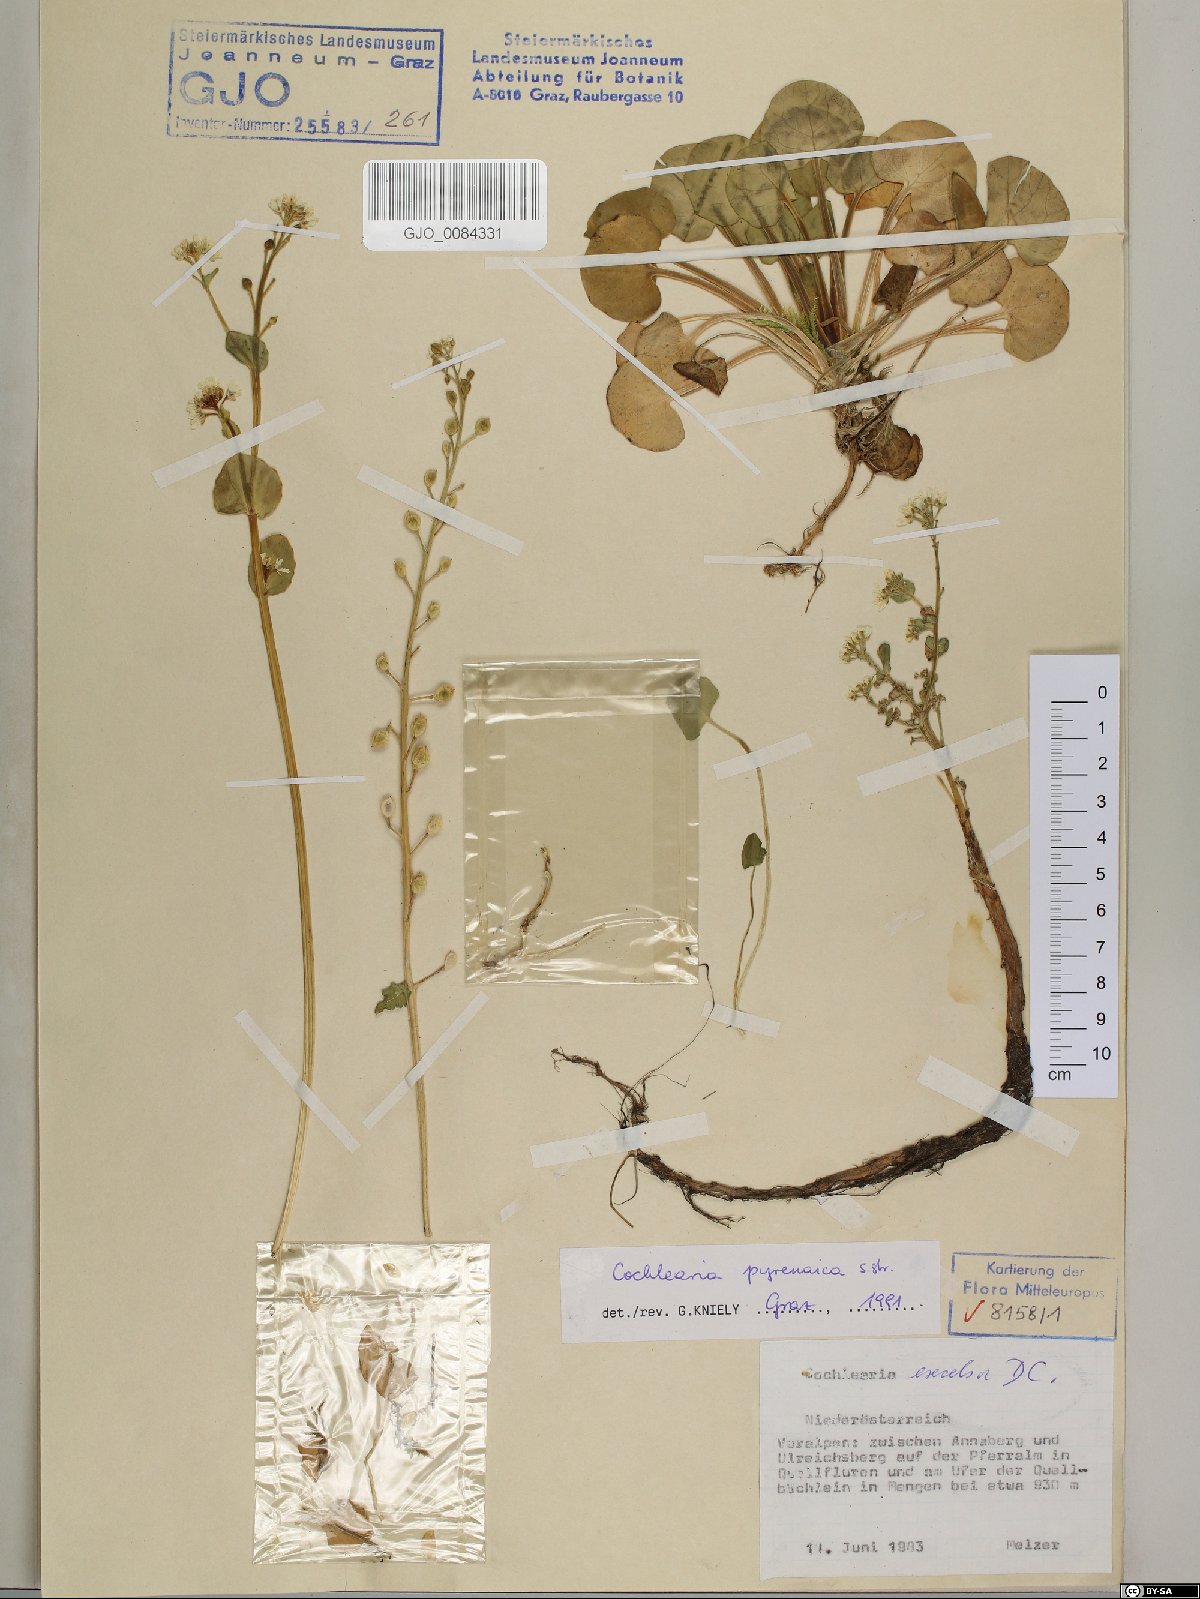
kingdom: Plantae
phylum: Tracheophyta
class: Magnoliopsida
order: Brassicales
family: Brassicaceae
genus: Cochlearia
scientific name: Cochlearia pyrenaica
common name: Upland scurvy-grass
